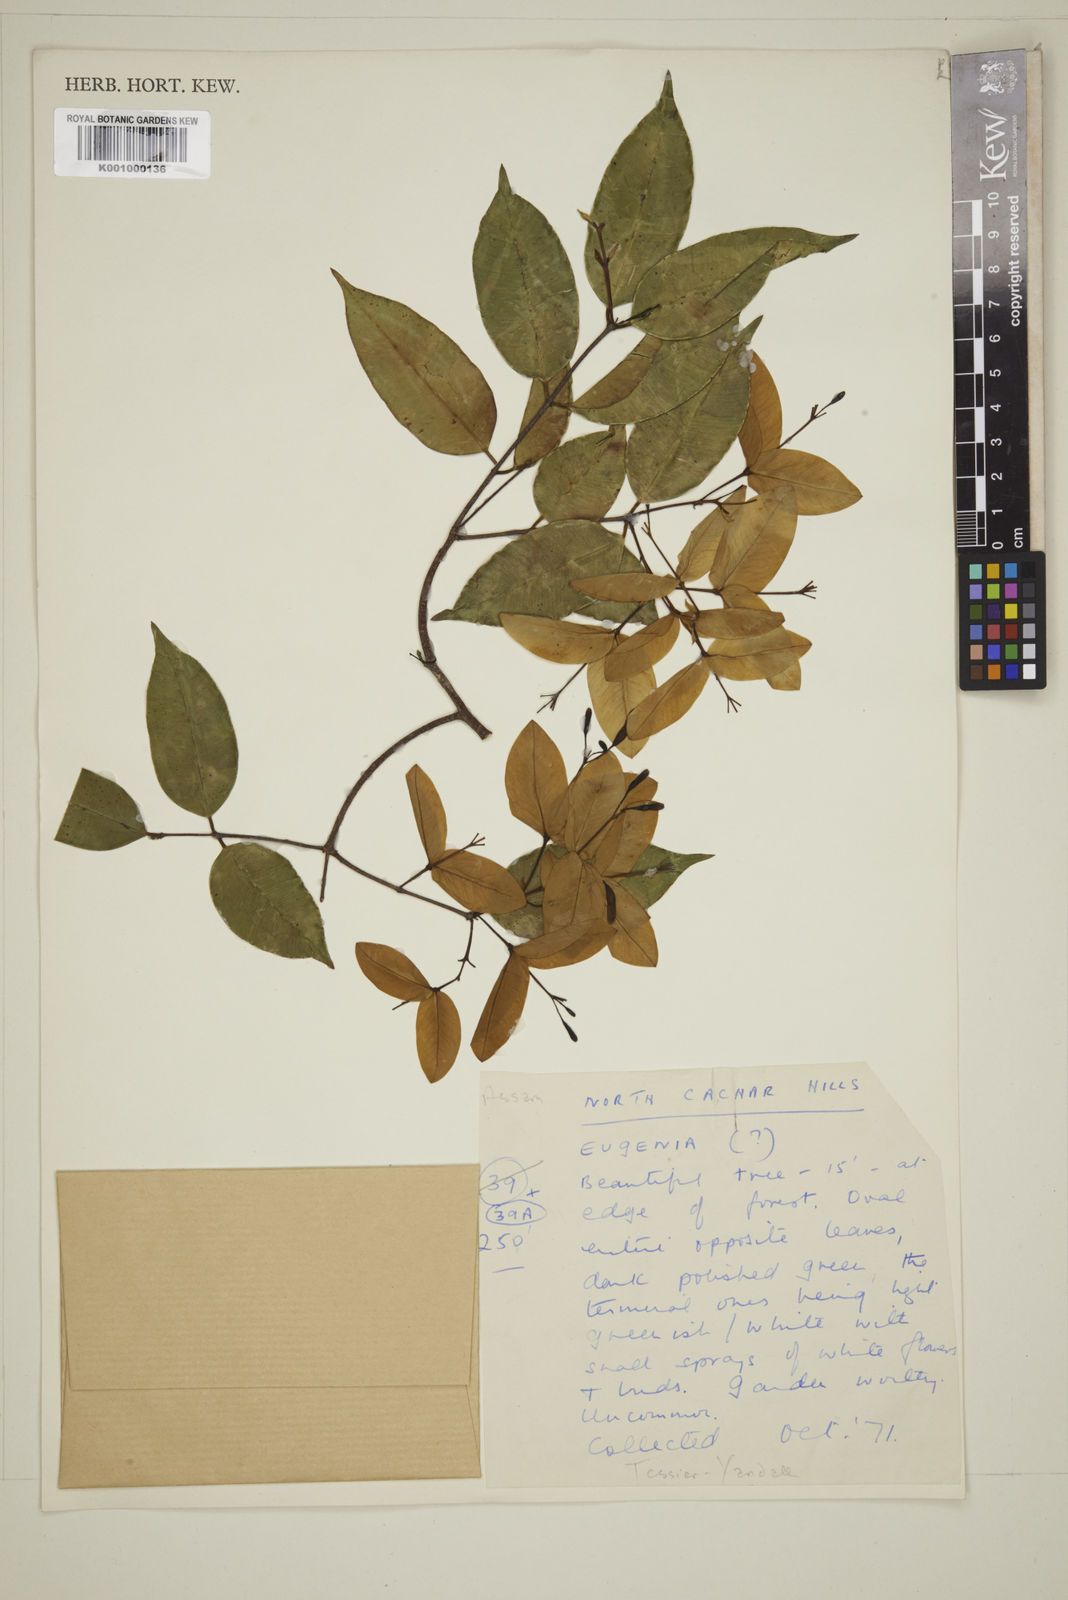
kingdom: Plantae
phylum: Tracheophyta
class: Magnoliopsida
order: Myrtales
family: Myrtaceae
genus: Eugenia
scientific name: Eugenia
